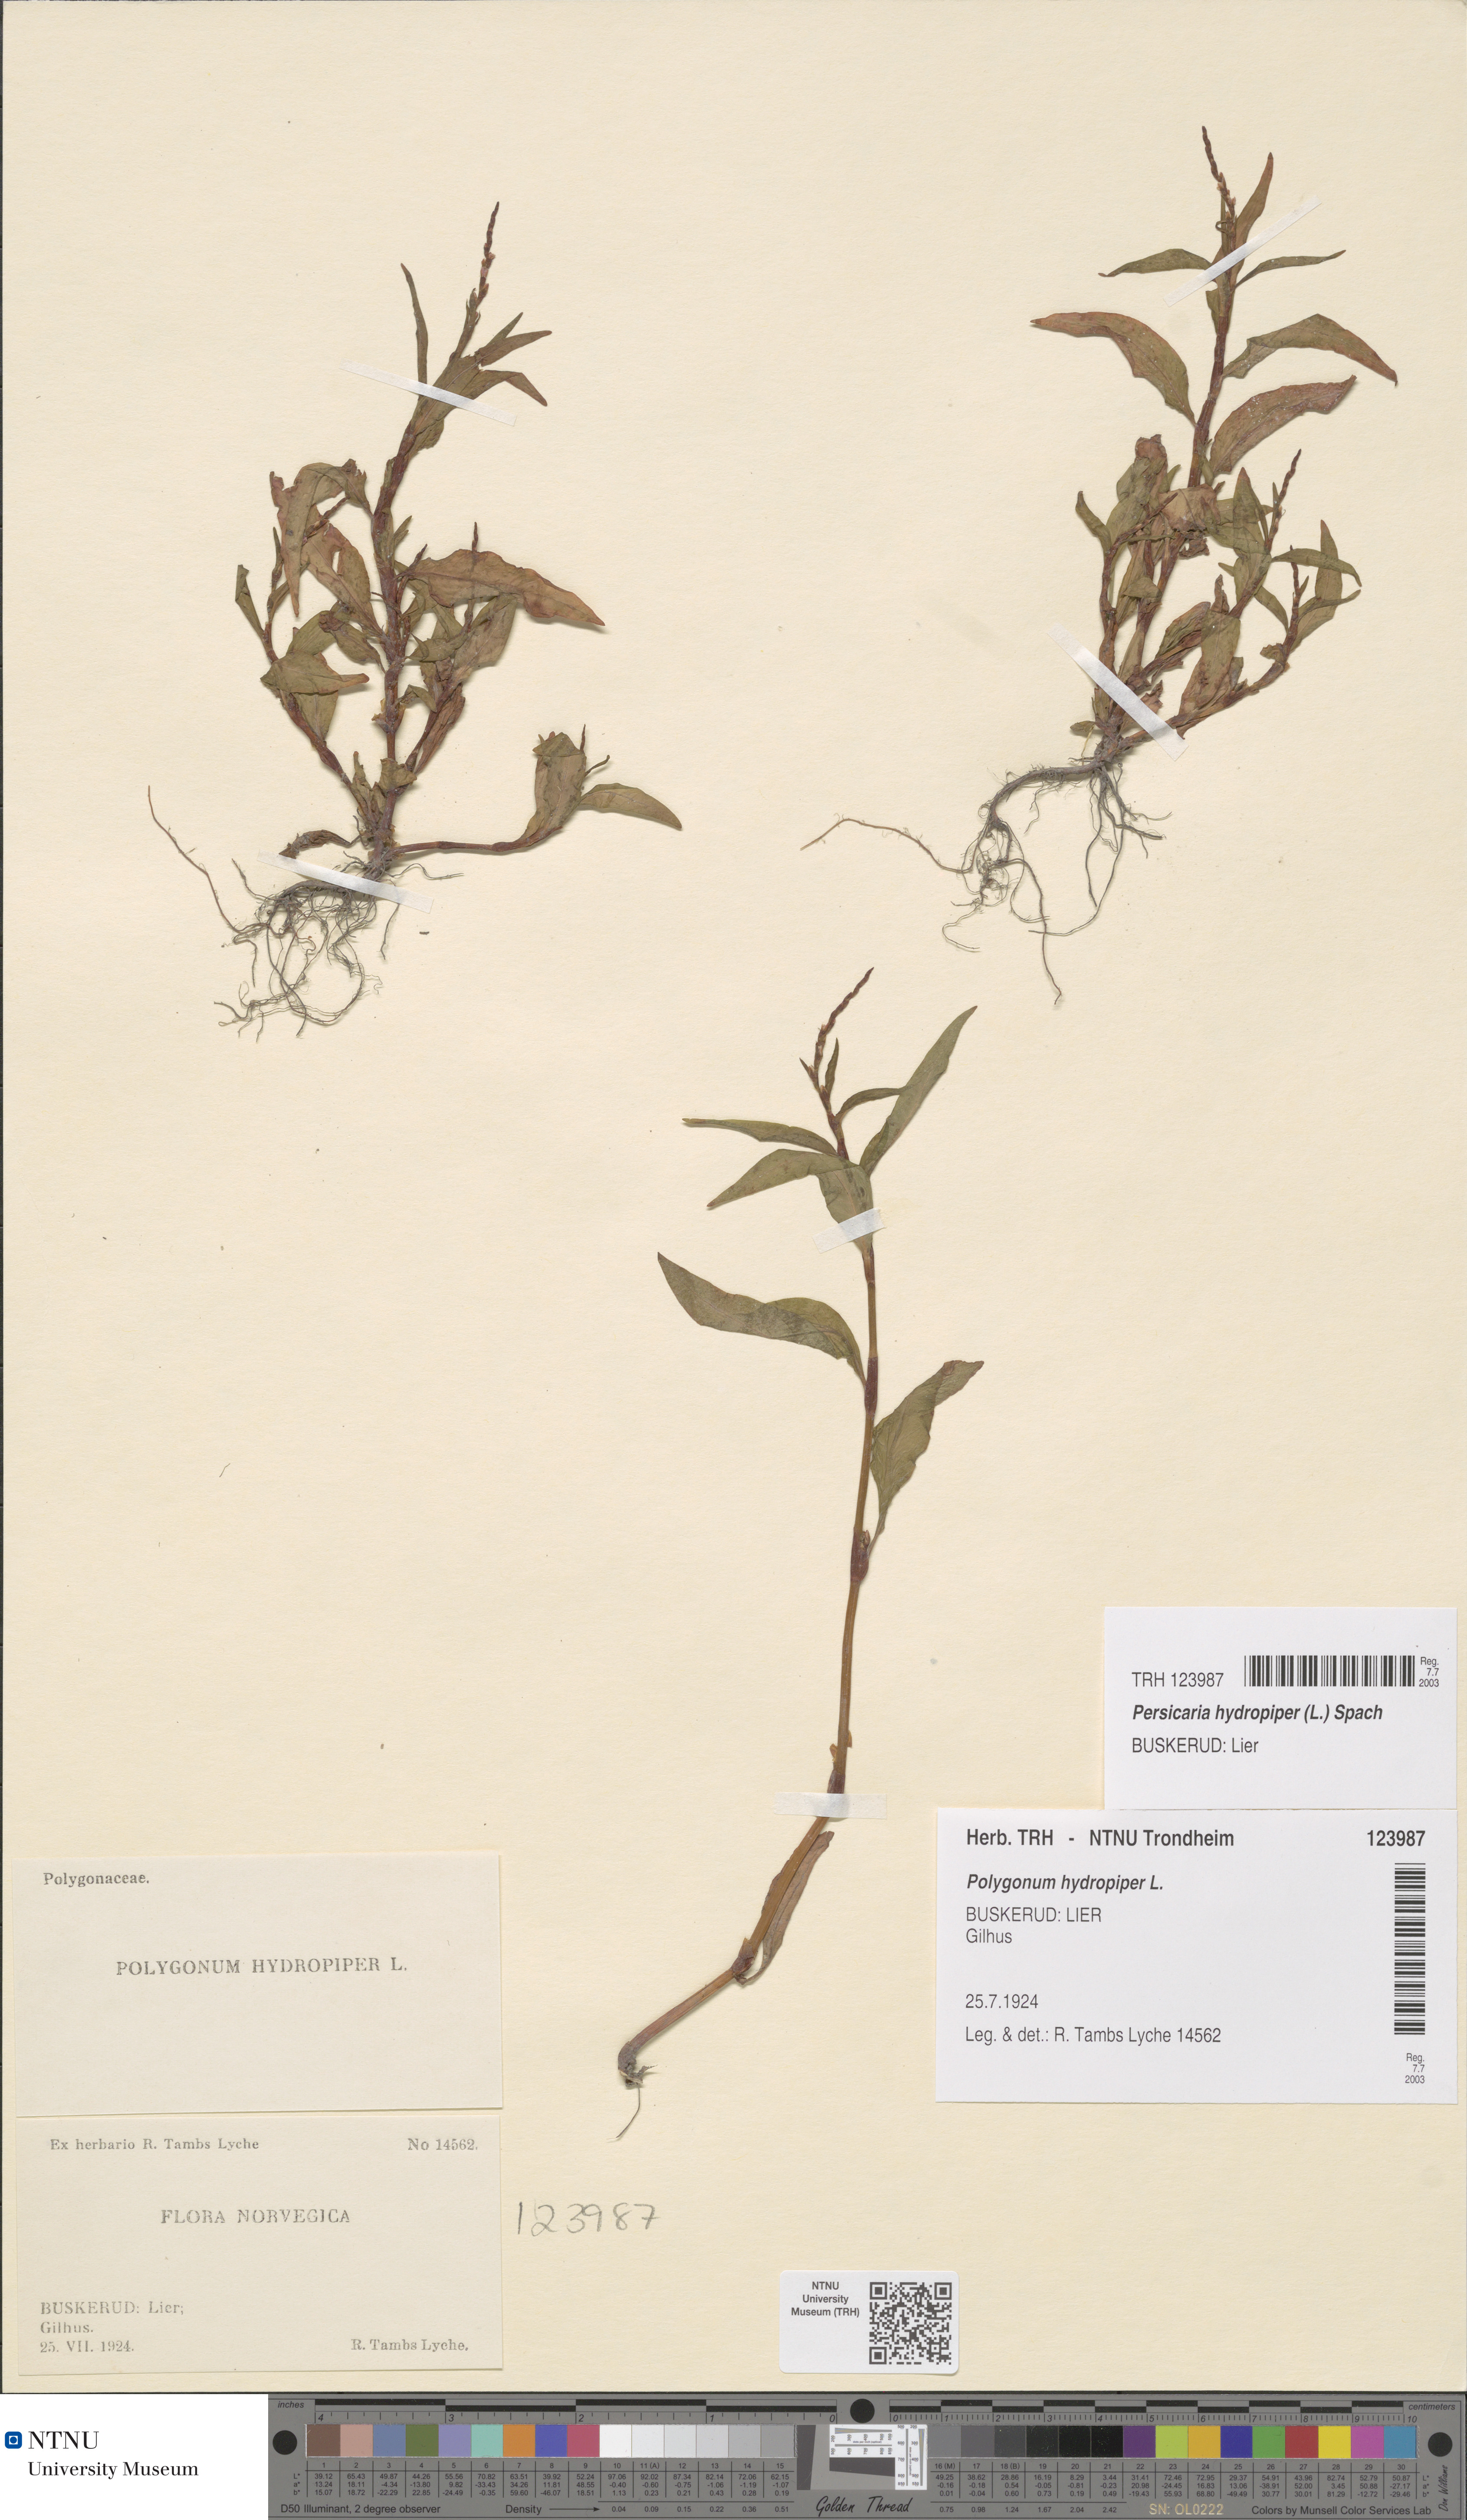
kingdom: Plantae
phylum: Tracheophyta
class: Magnoliopsida
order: Caryophyllales
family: Polygonaceae
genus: Persicaria
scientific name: Persicaria hydropiper
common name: Water-pepper
